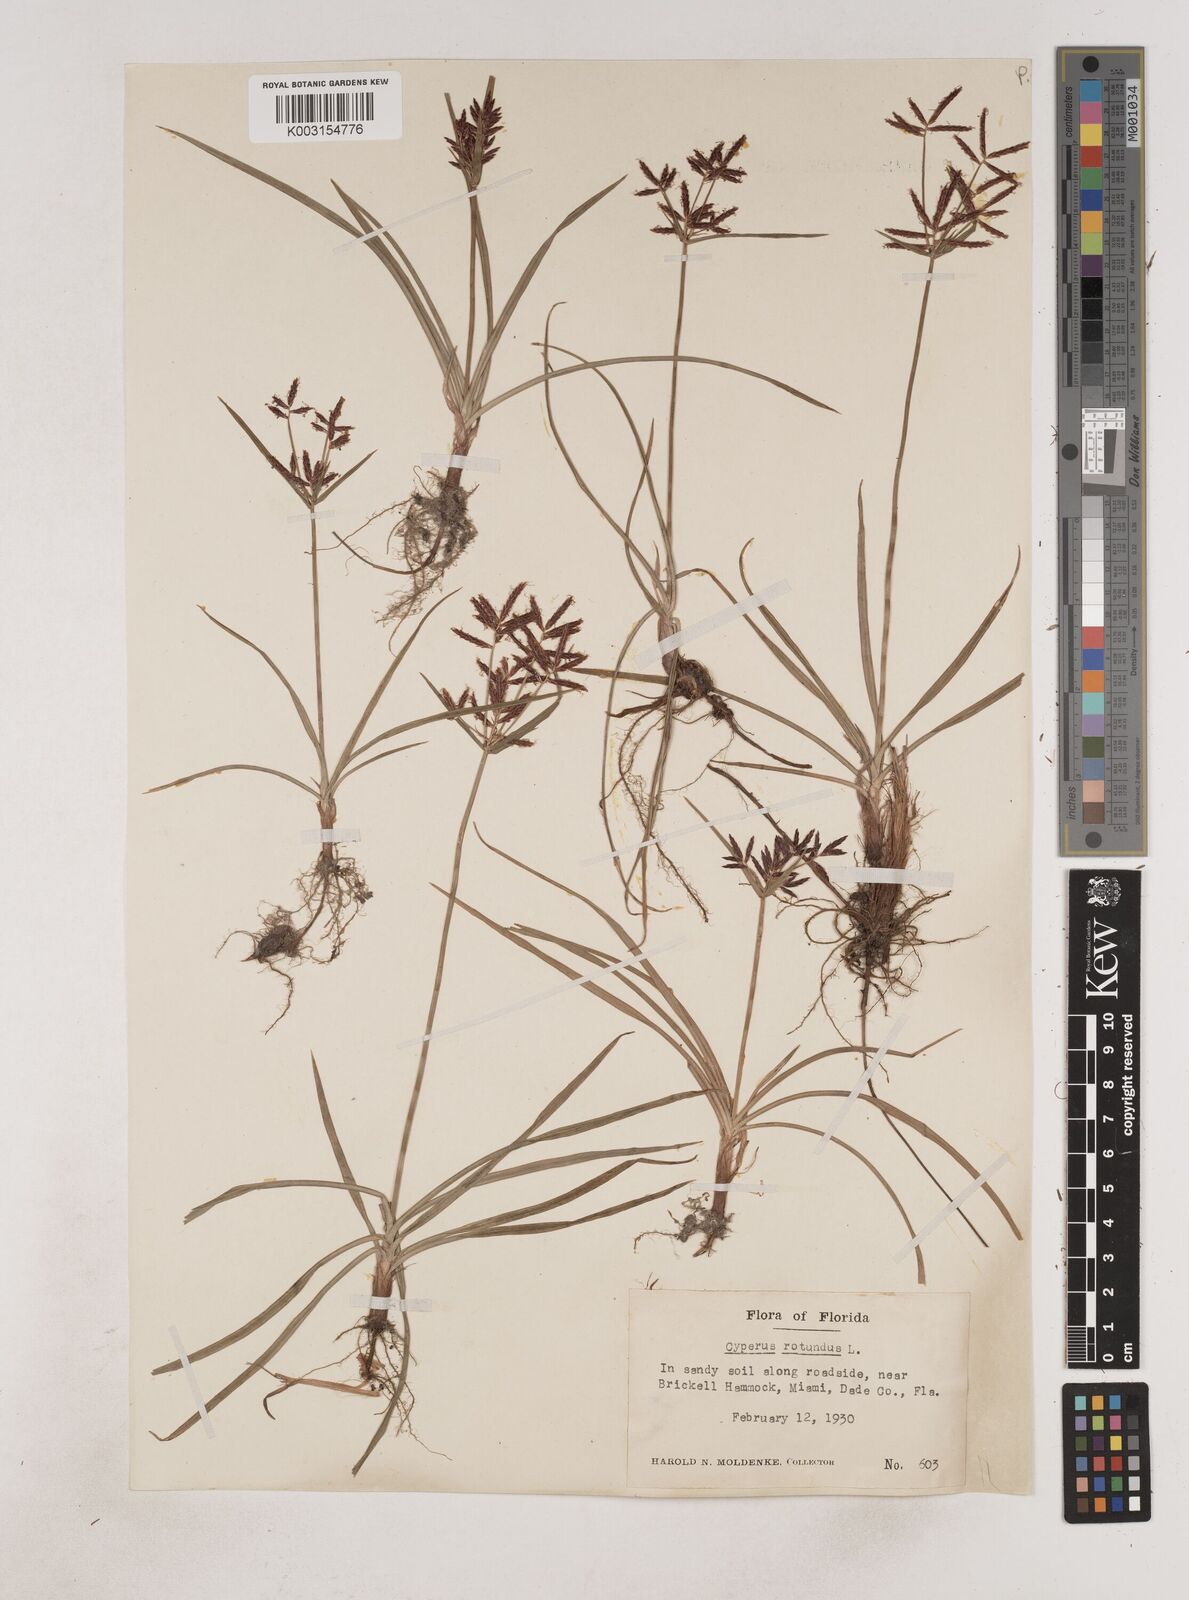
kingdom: Plantae
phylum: Tracheophyta
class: Liliopsida
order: Poales
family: Cyperaceae
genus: Cyperus
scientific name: Cyperus rotundus
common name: Nutgrass
